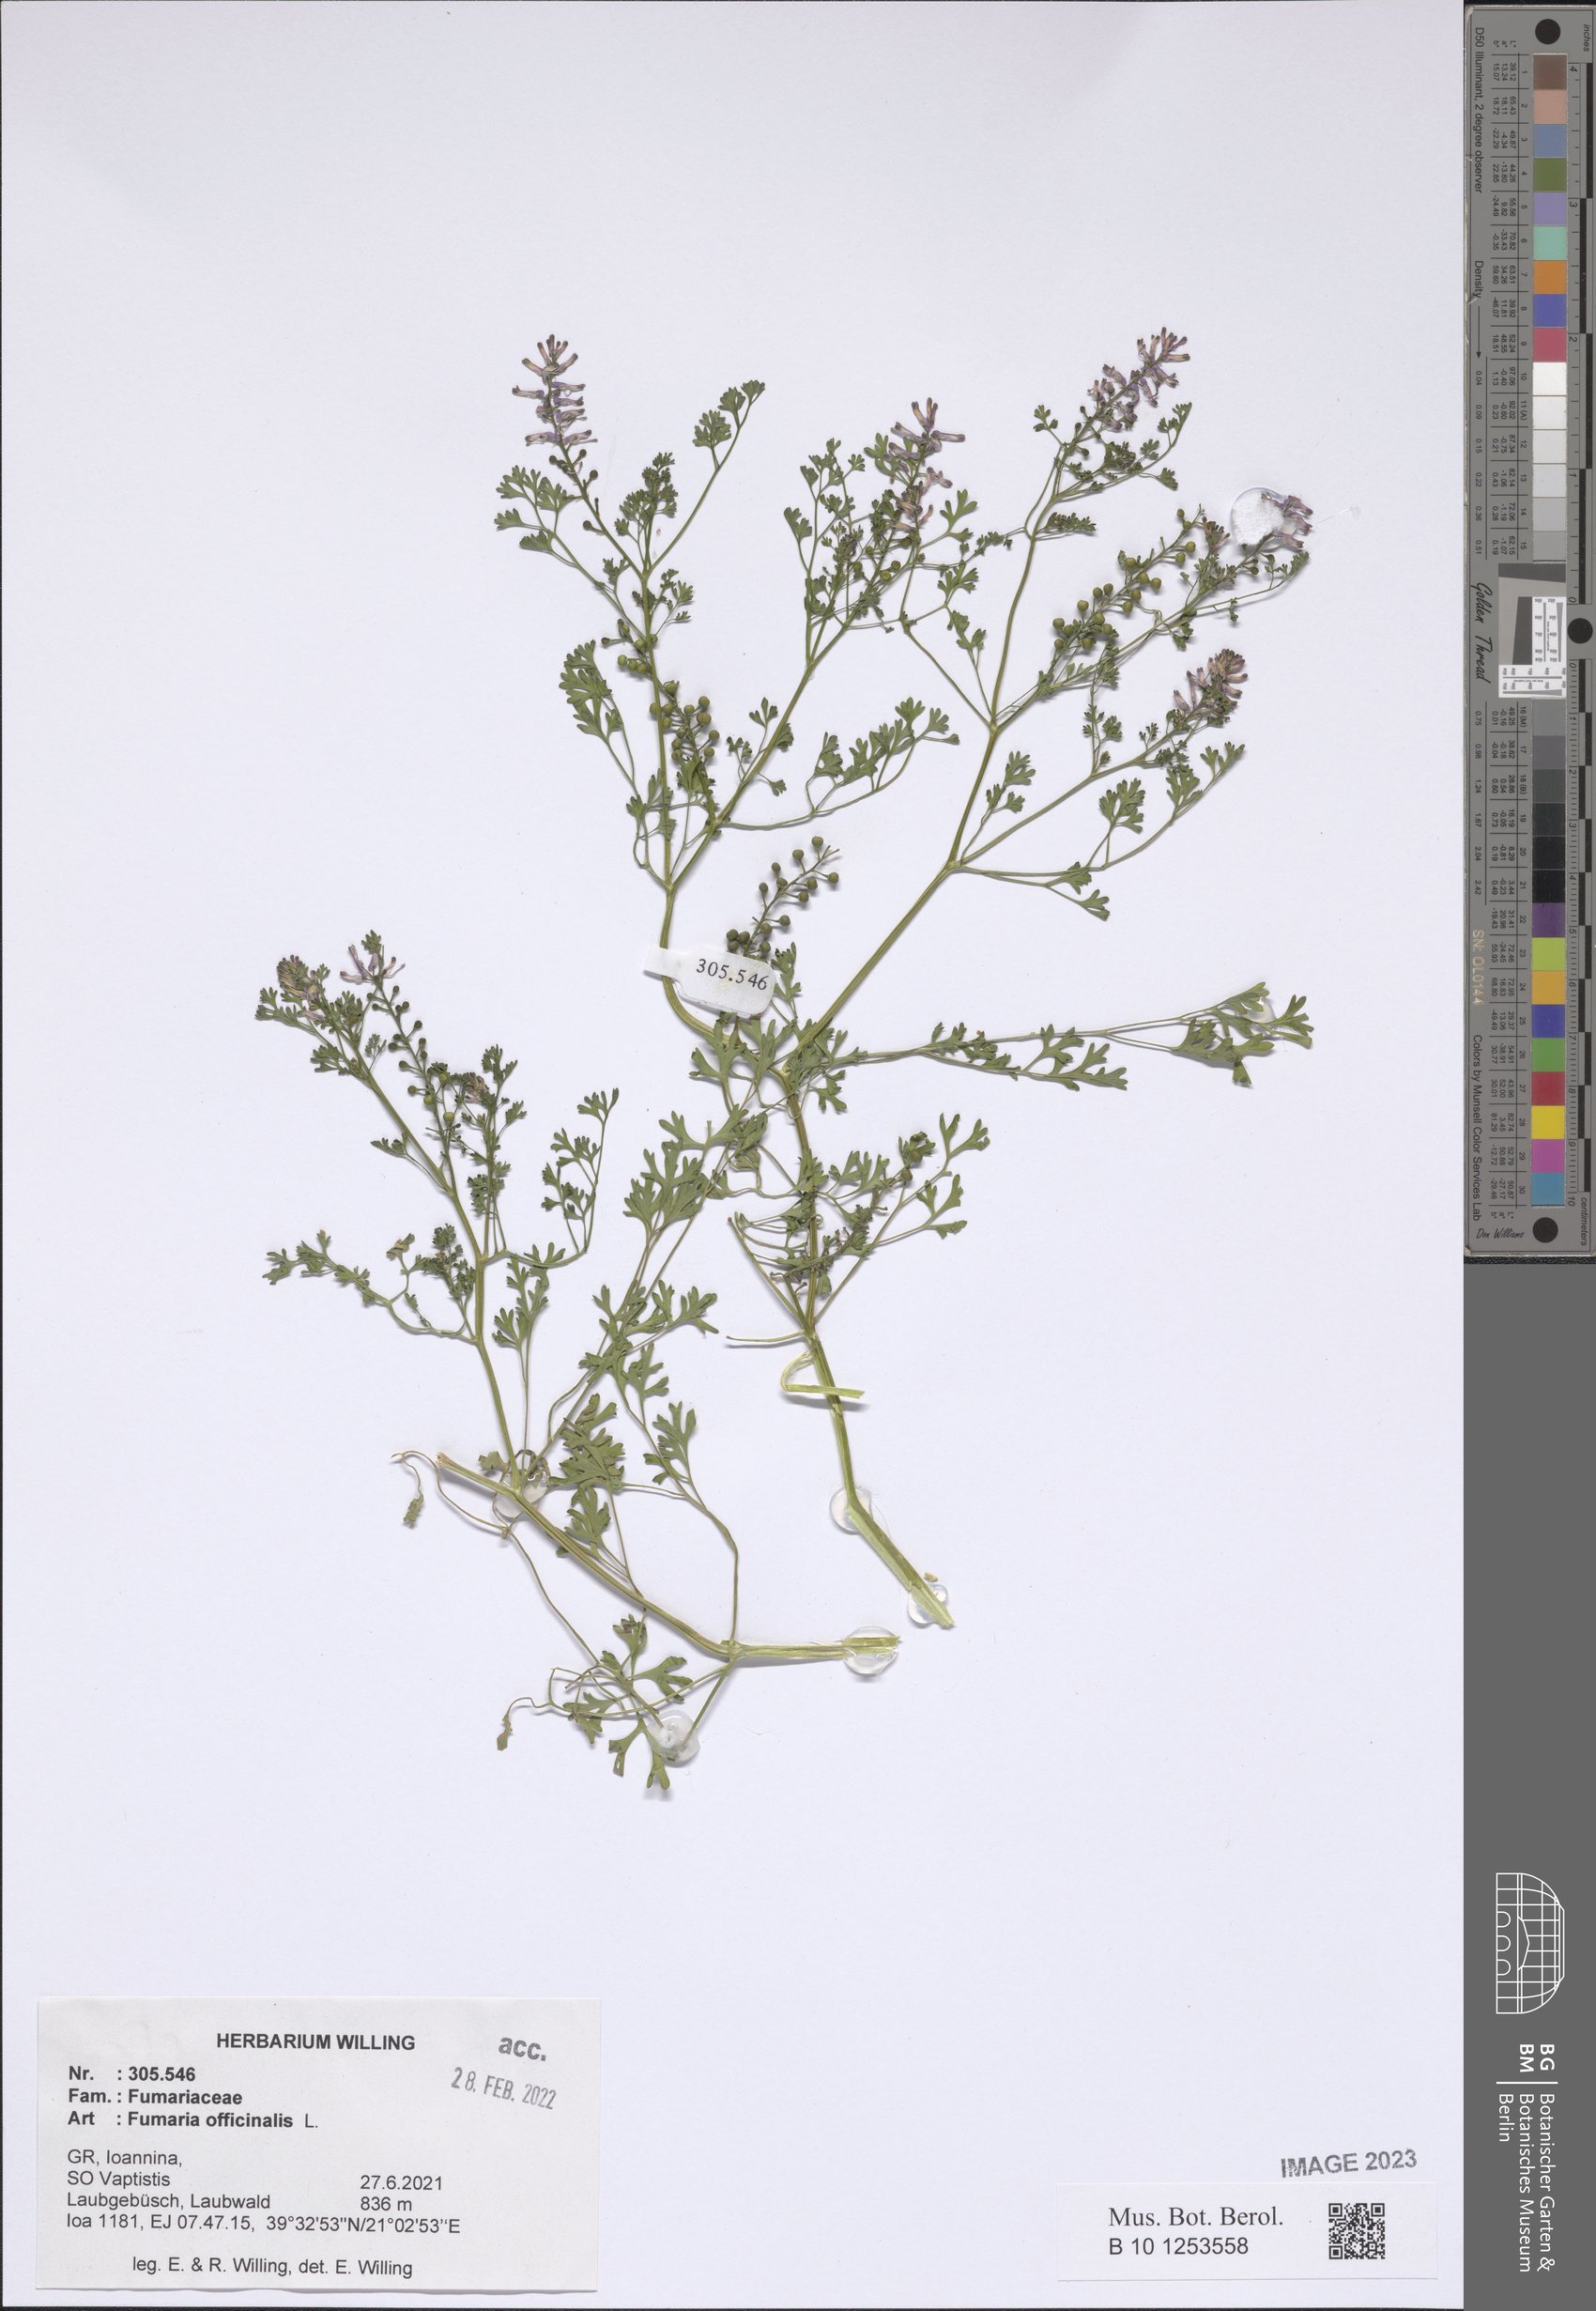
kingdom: Plantae
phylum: Tracheophyta
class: Magnoliopsida
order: Ranunculales
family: Papaveraceae
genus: Fumaria
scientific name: Fumaria officinalis
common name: Common fumitory
